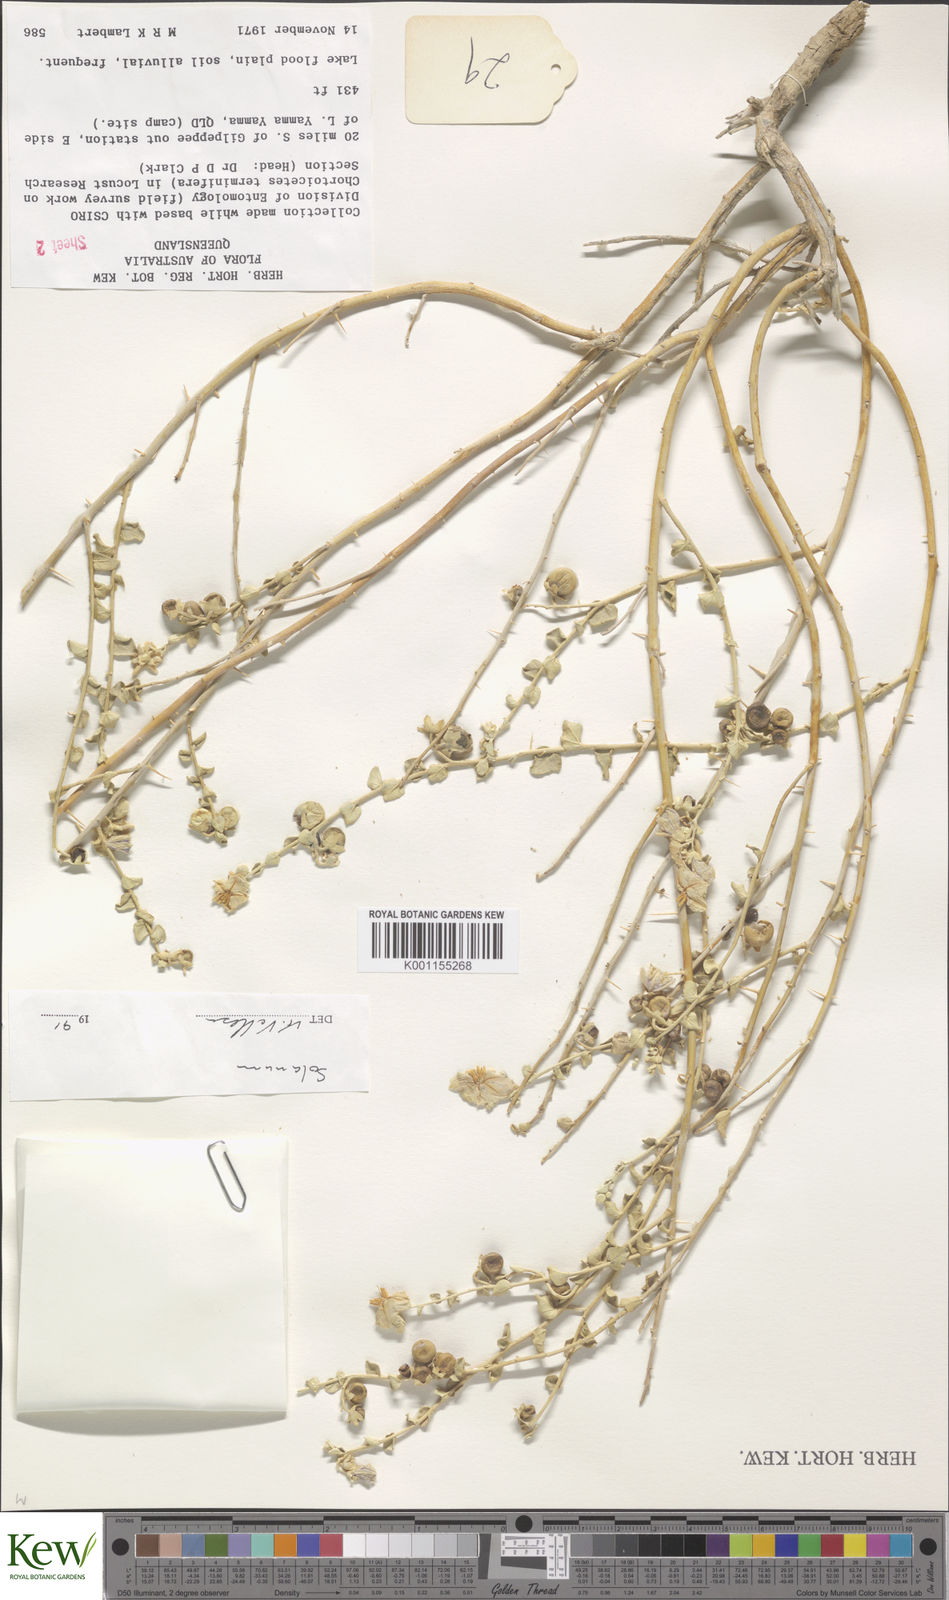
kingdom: Plantae
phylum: Tracheophyta
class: Magnoliopsida
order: Solanales
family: Solanaceae
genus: Solanum
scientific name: Solanum
